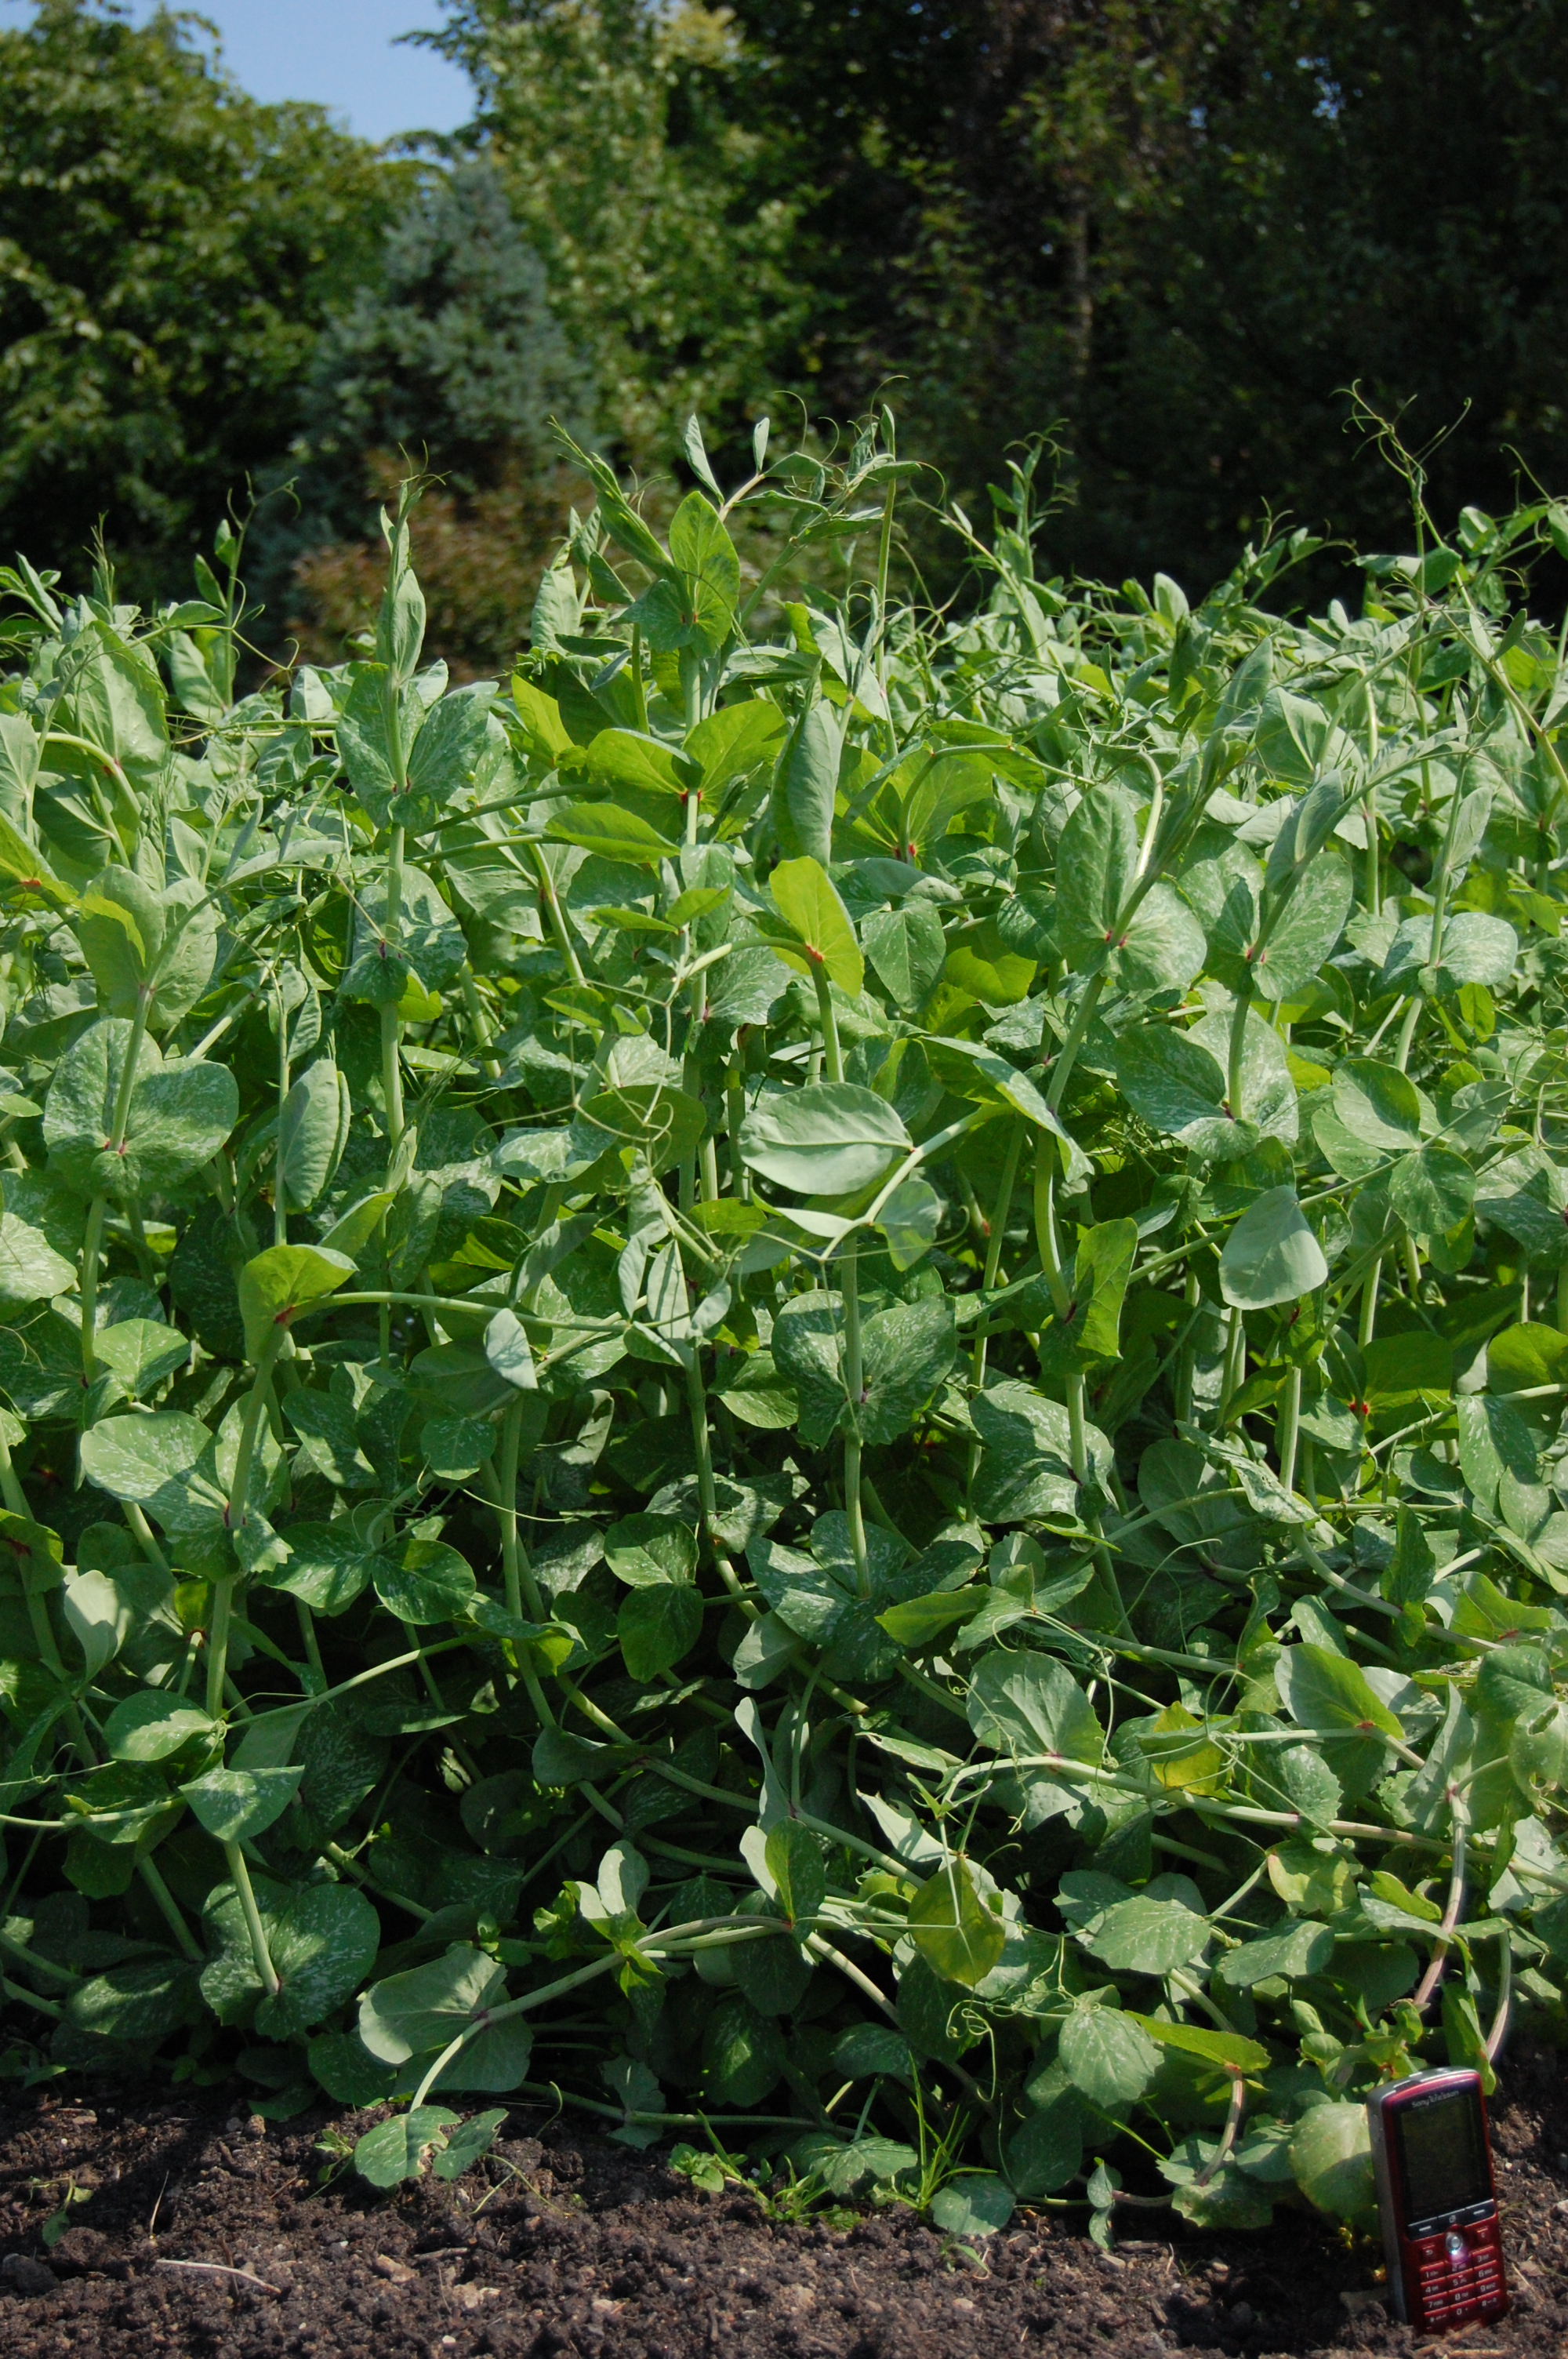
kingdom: Plantae
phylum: Tracheophyta
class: Magnoliopsida
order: Fabales
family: Fabaceae
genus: Lathyrus
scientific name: Lathyrus oleraceus
